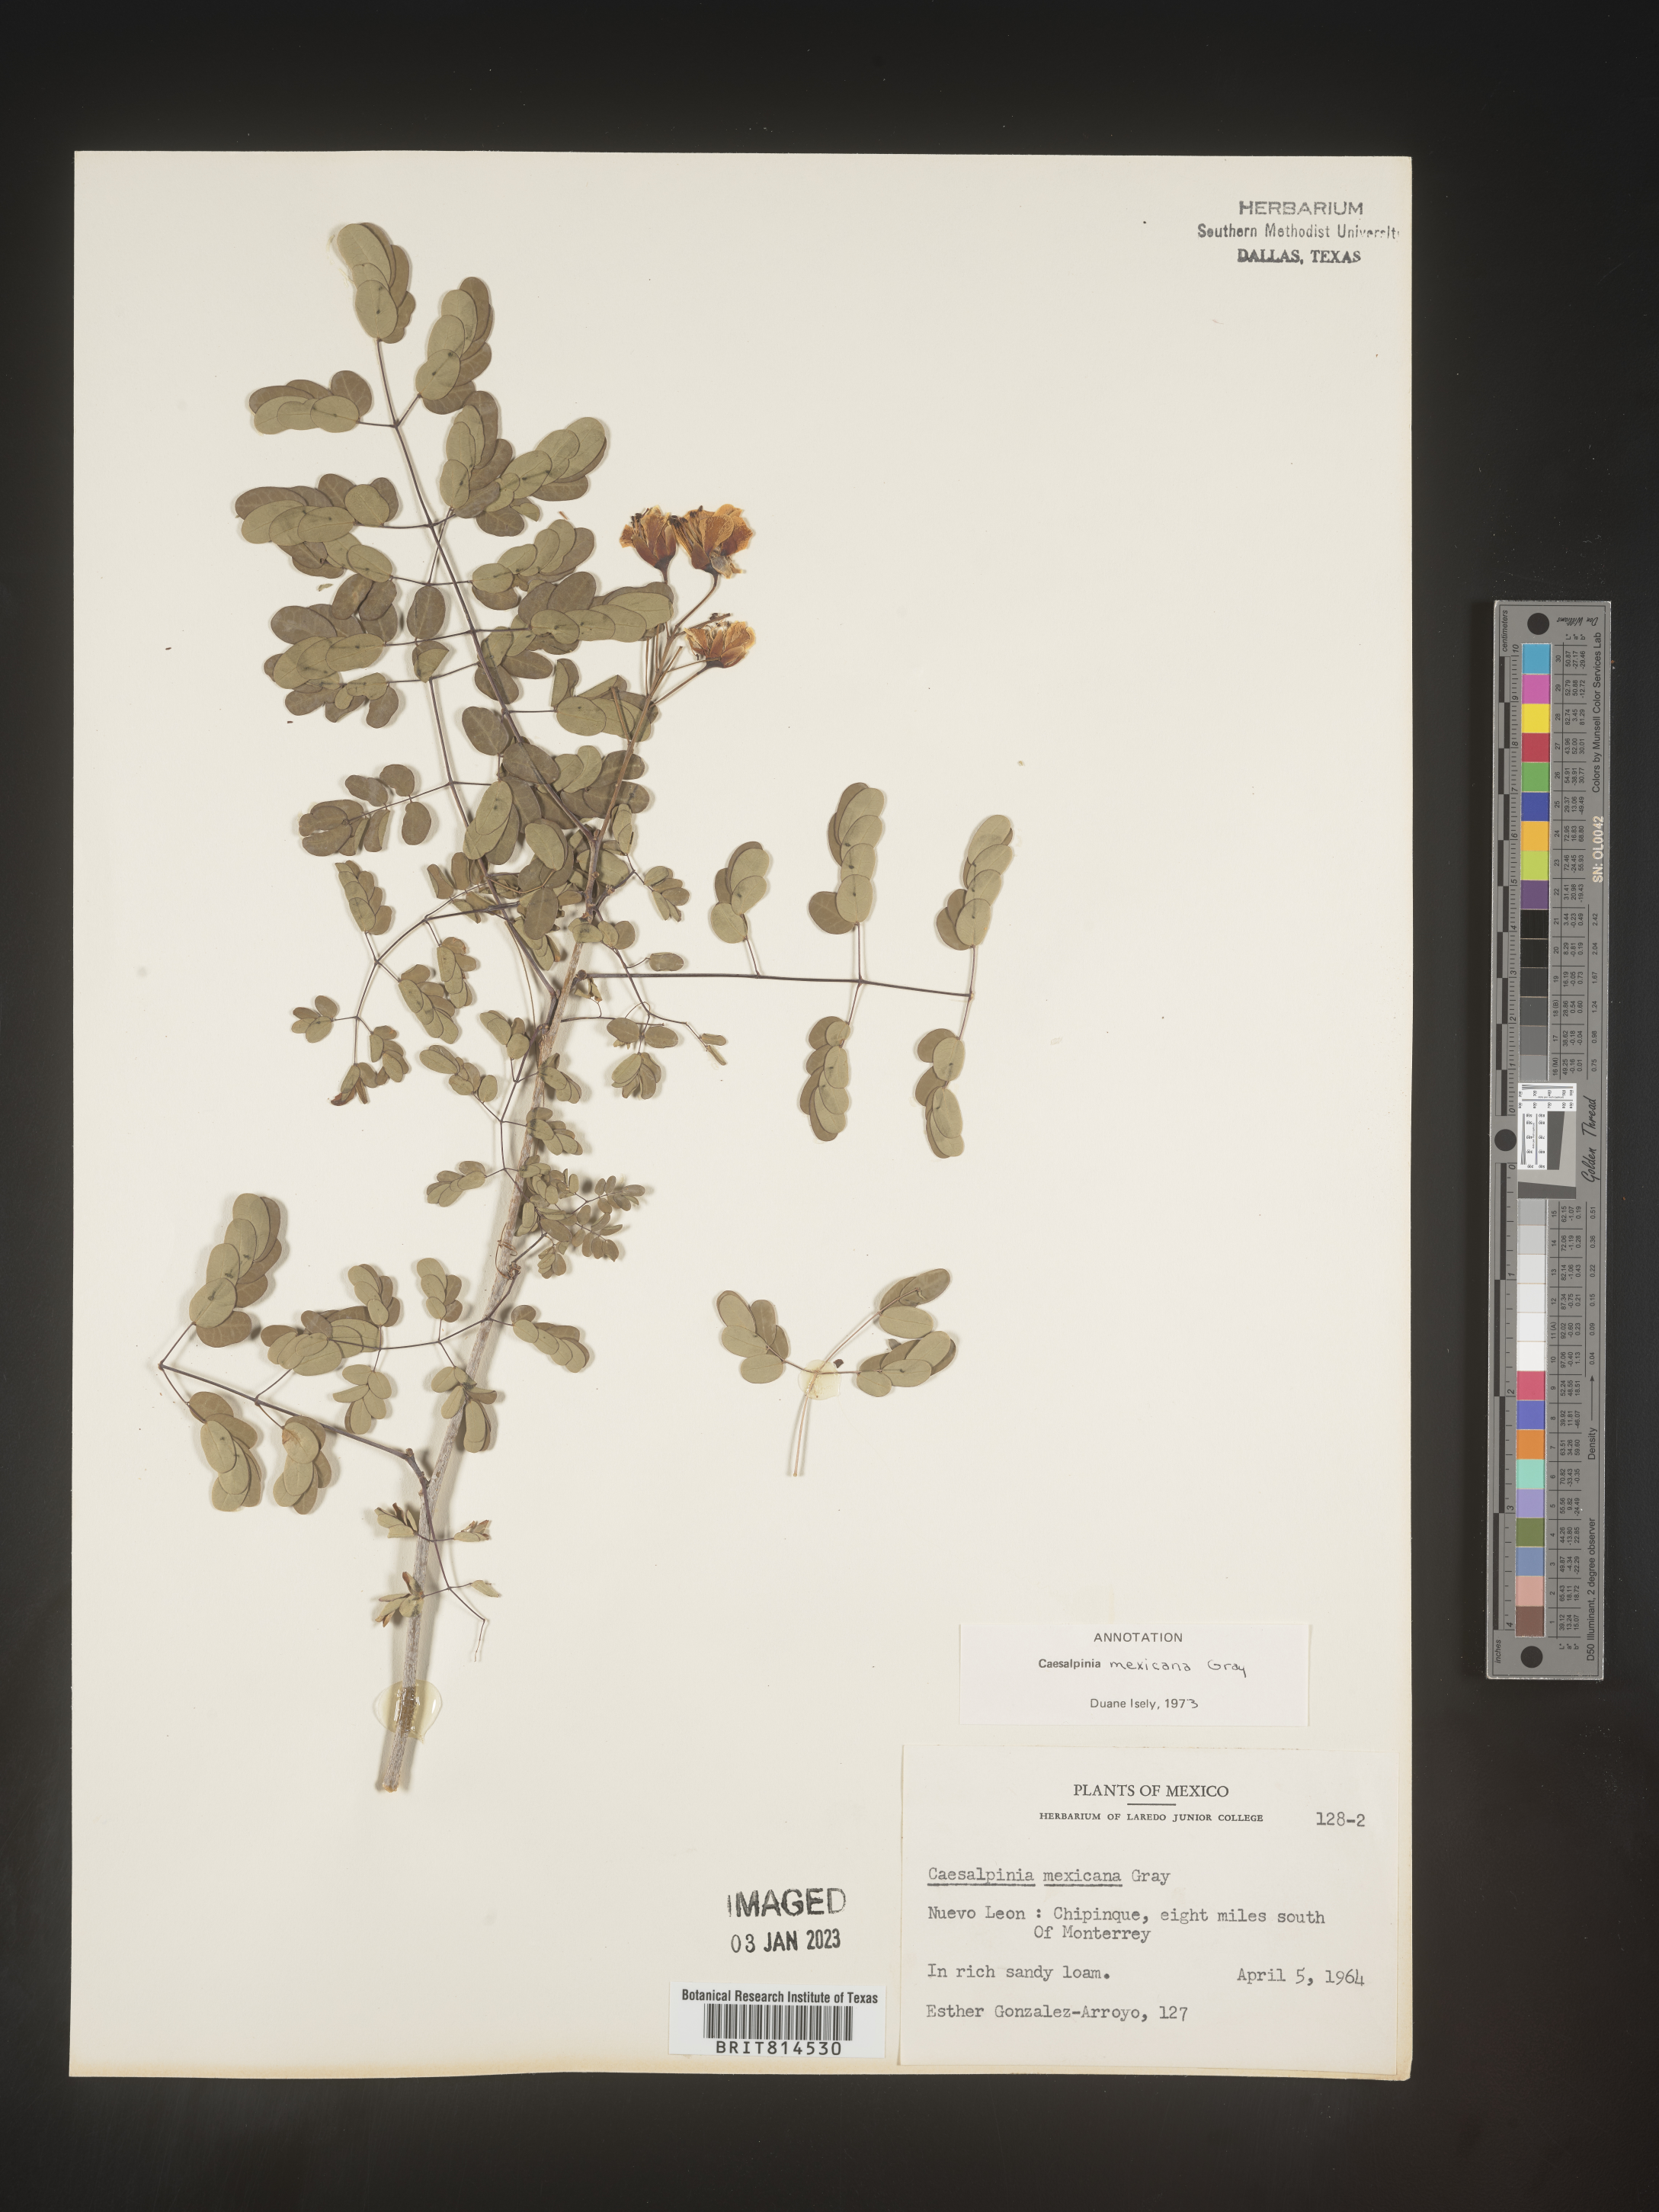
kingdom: Plantae
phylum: Tracheophyta
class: Magnoliopsida
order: Fabales
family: Fabaceae
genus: Caesalpinia
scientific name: Caesalpinia
